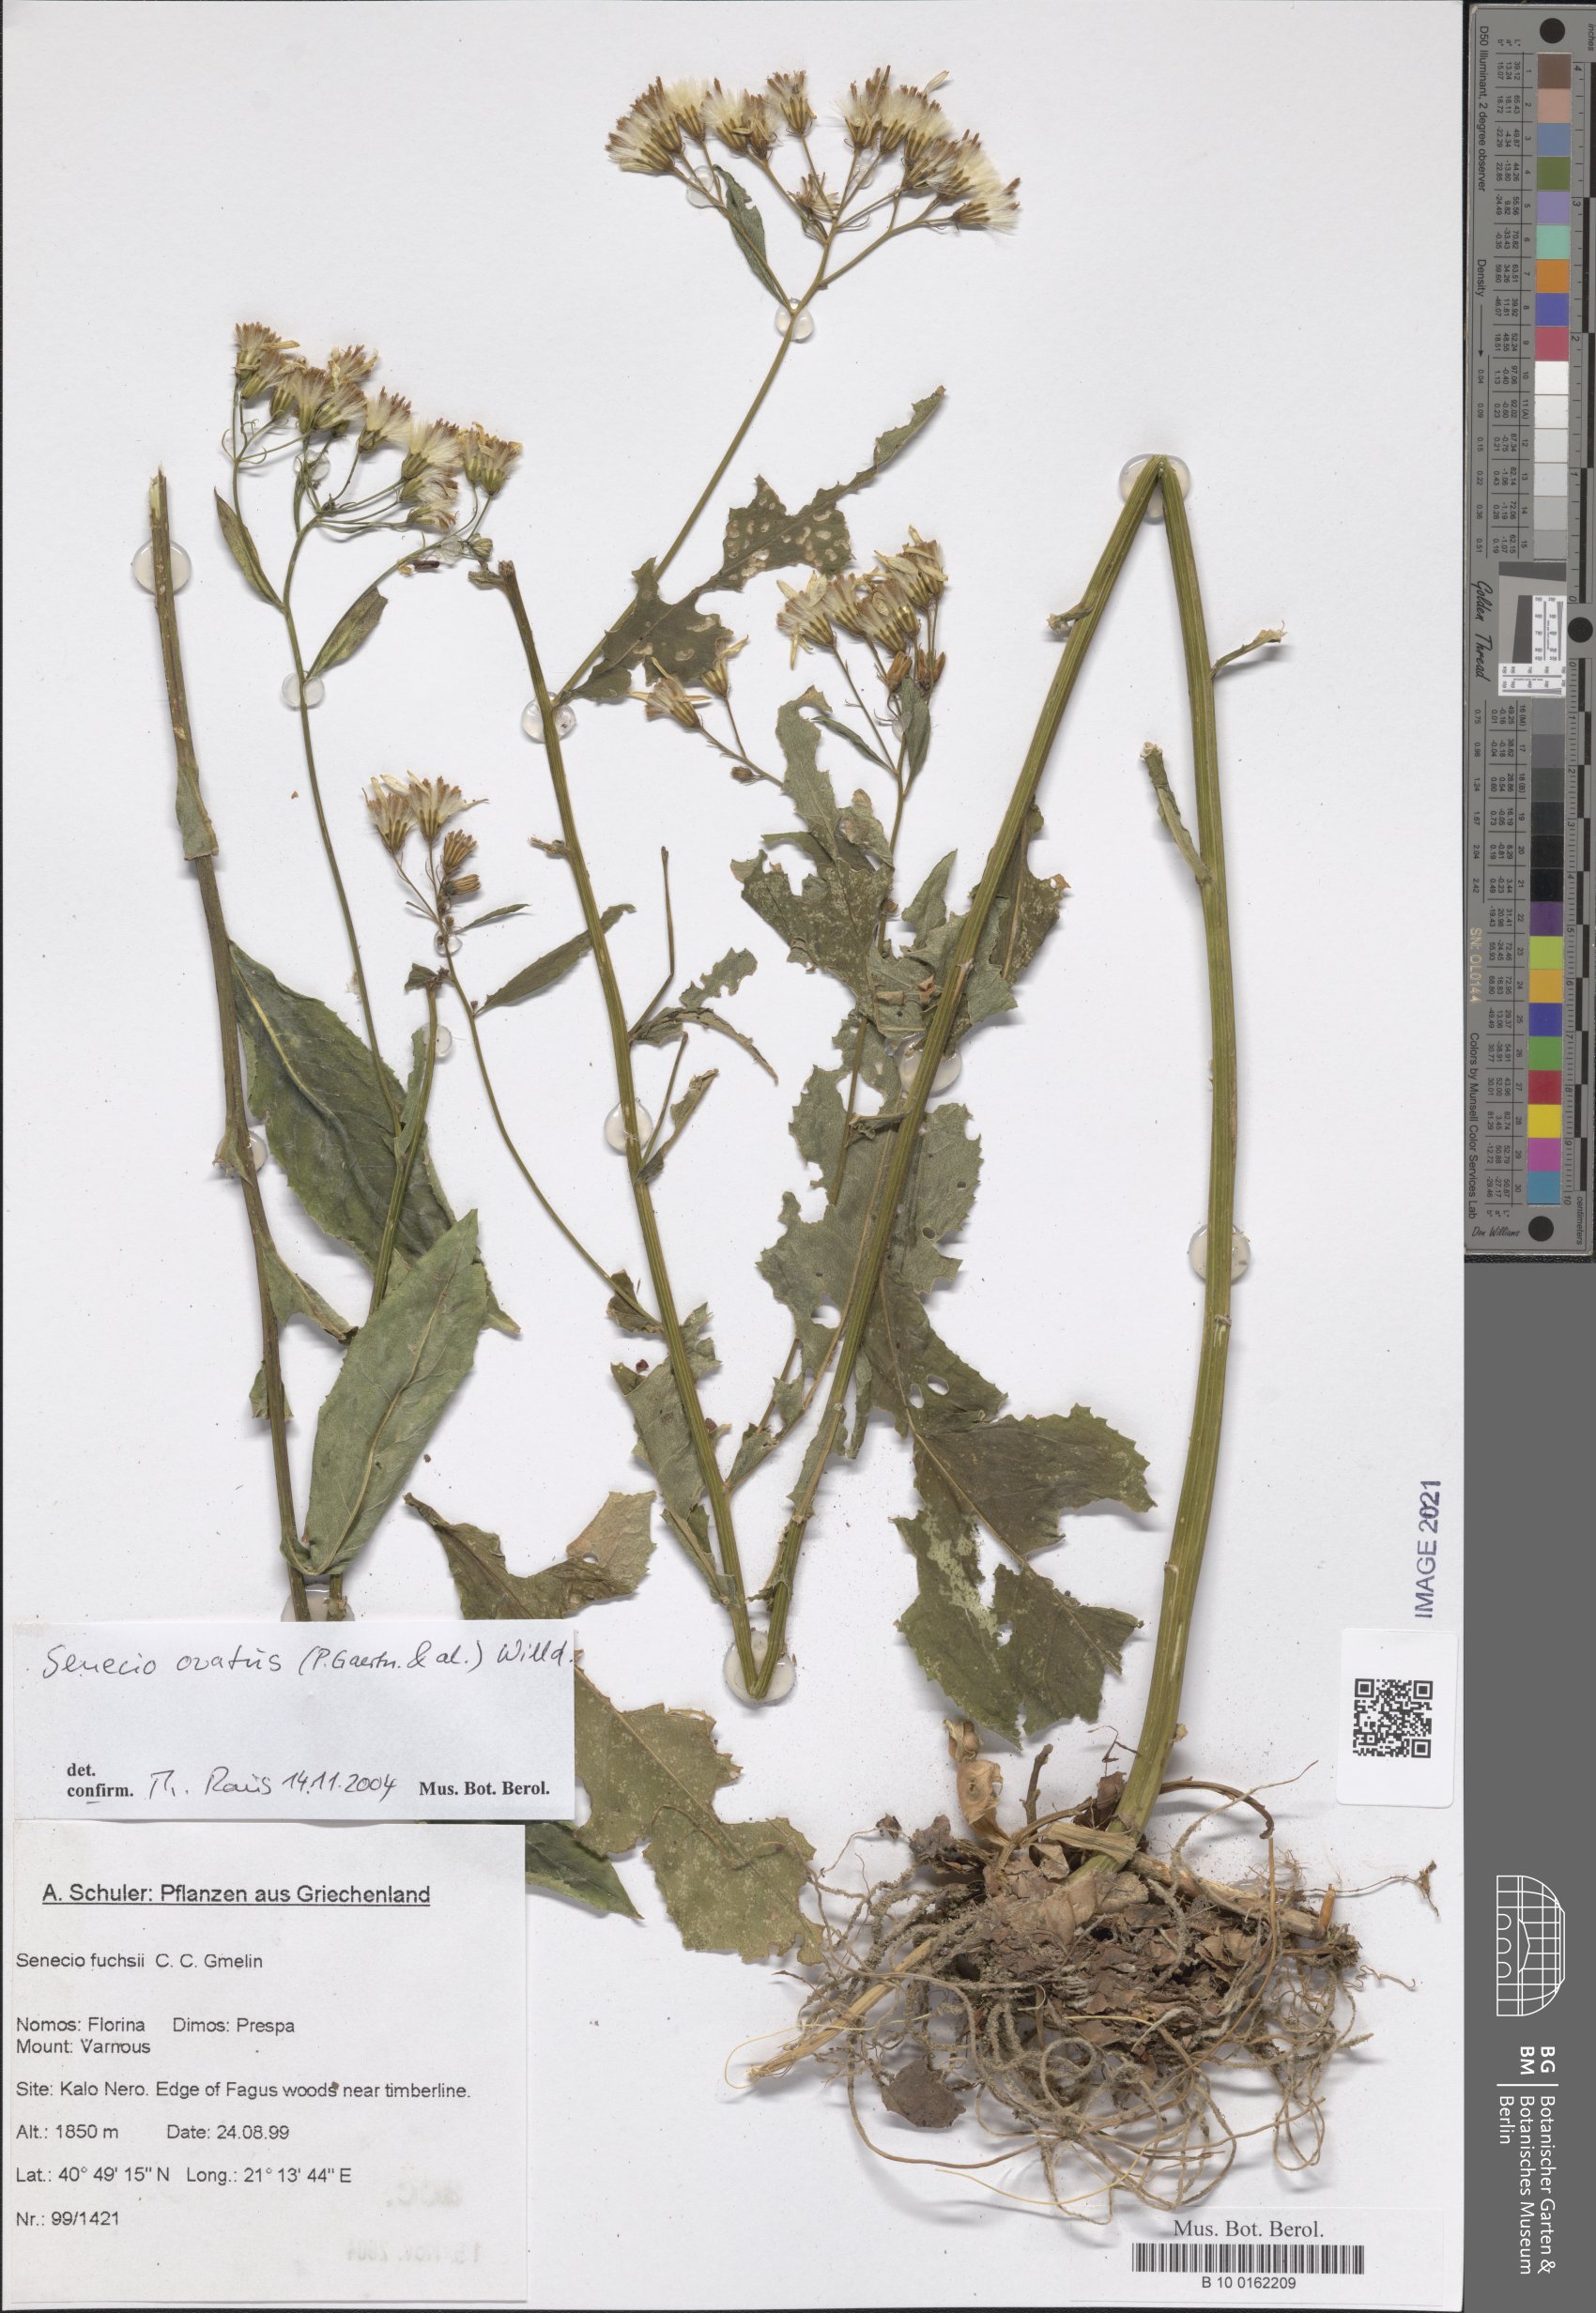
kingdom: Plantae
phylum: Tracheophyta
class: Magnoliopsida
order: Asterales
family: Asteraceae
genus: Senecio
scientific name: Senecio ovatus
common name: Wood ragwort
